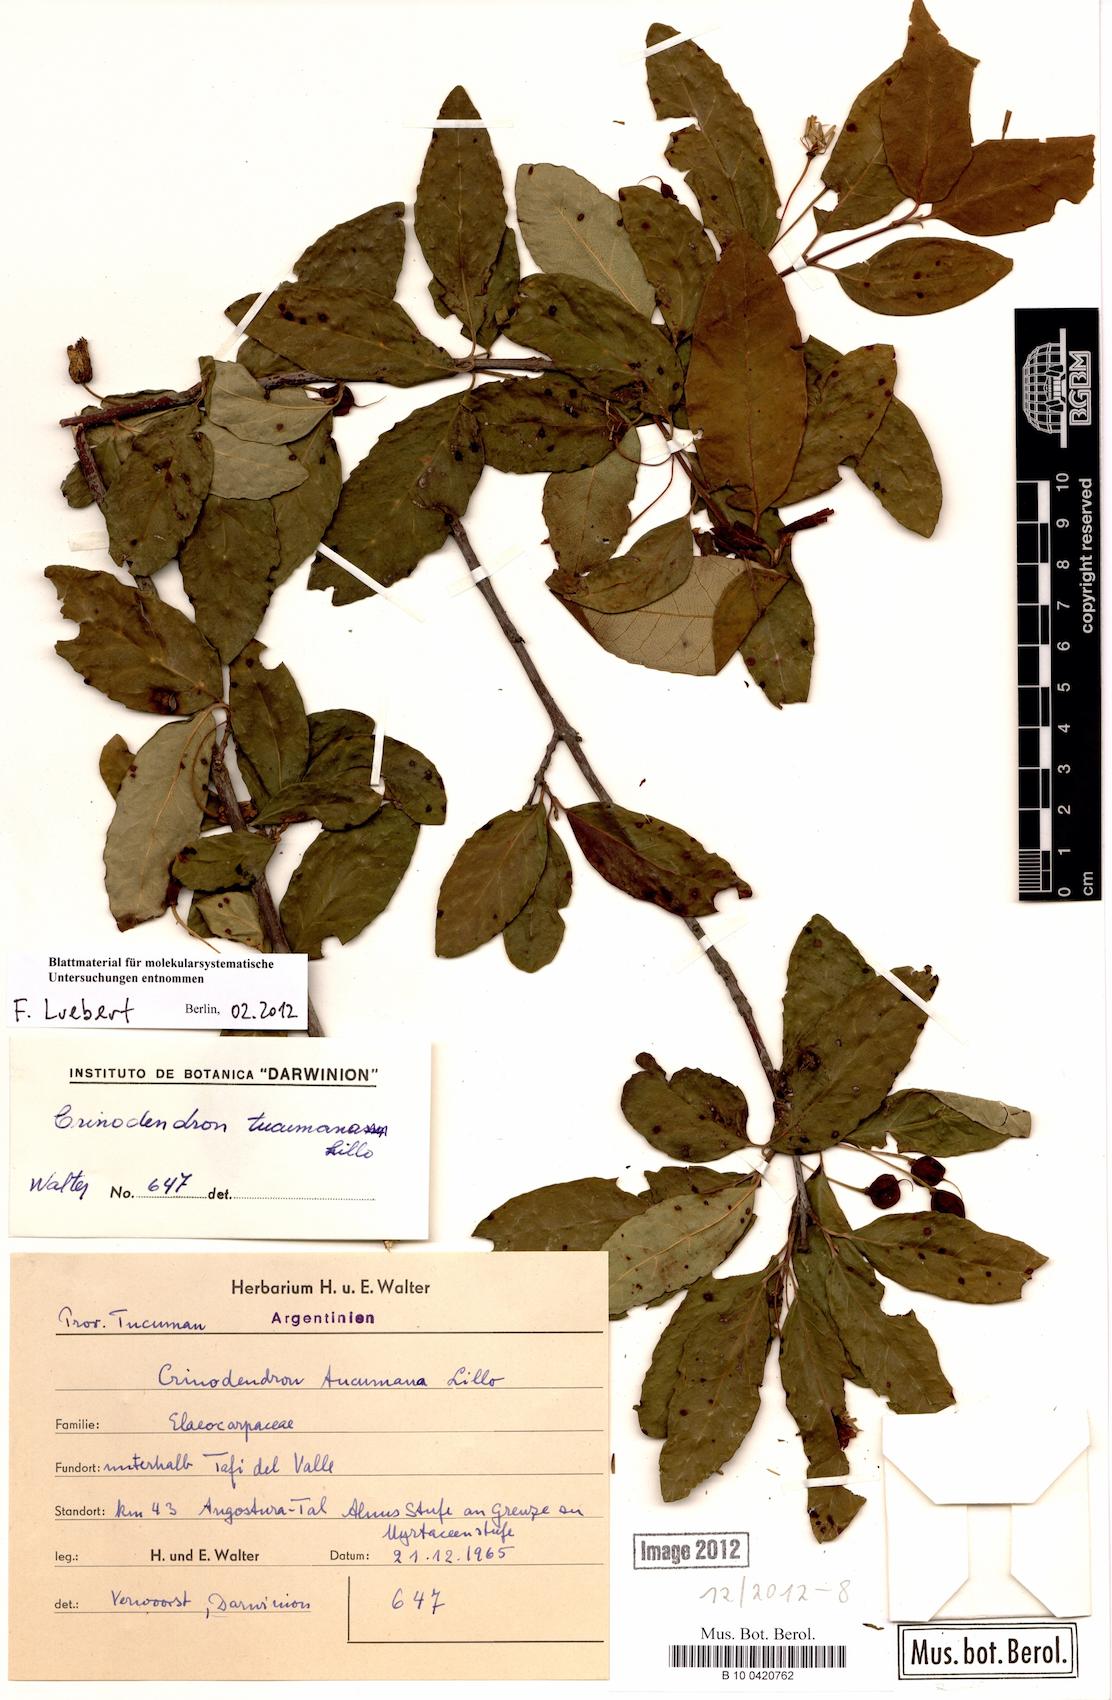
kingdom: Plantae
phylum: Tracheophyta
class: Magnoliopsida
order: Oxalidales
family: Elaeocarpaceae
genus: Crinodendron
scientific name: Crinodendron tucumanum
